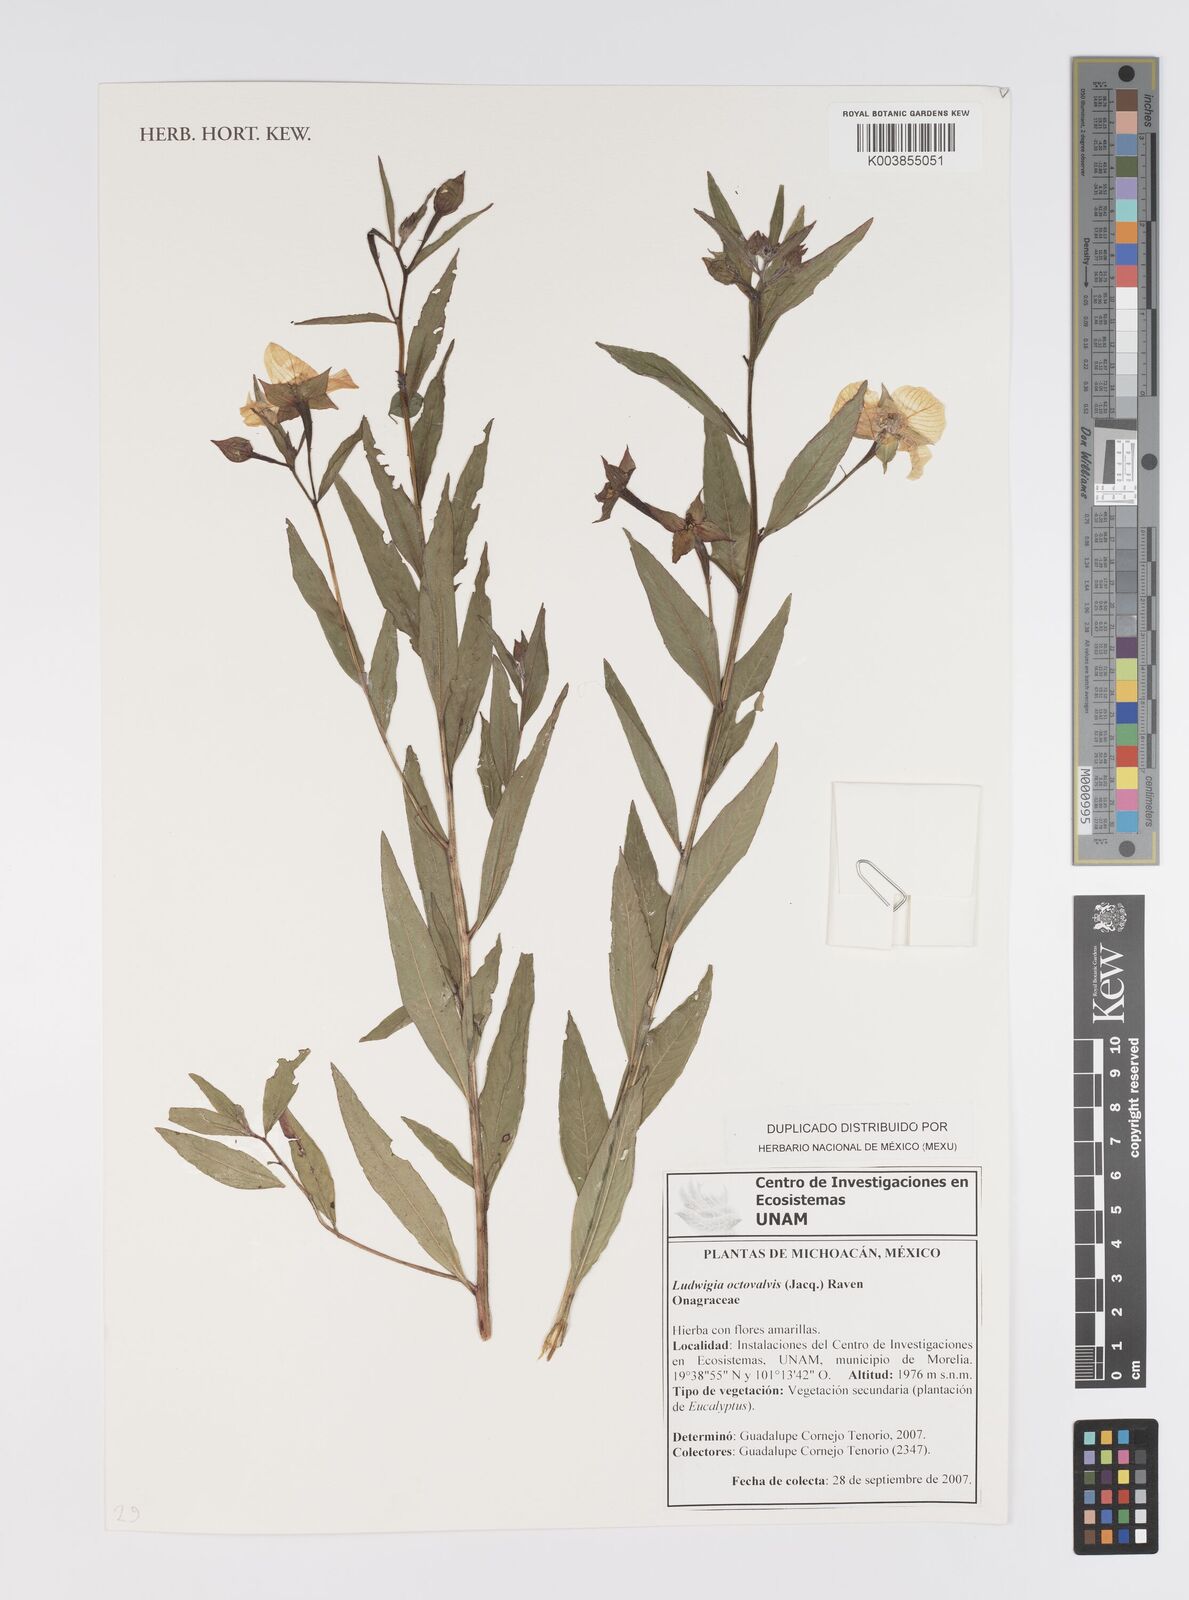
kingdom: Plantae
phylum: Tracheophyta
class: Magnoliopsida
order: Myrtales
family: Onagraceae
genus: Ludwigia
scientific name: Ludwigia octovalvis
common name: Water-primrose
